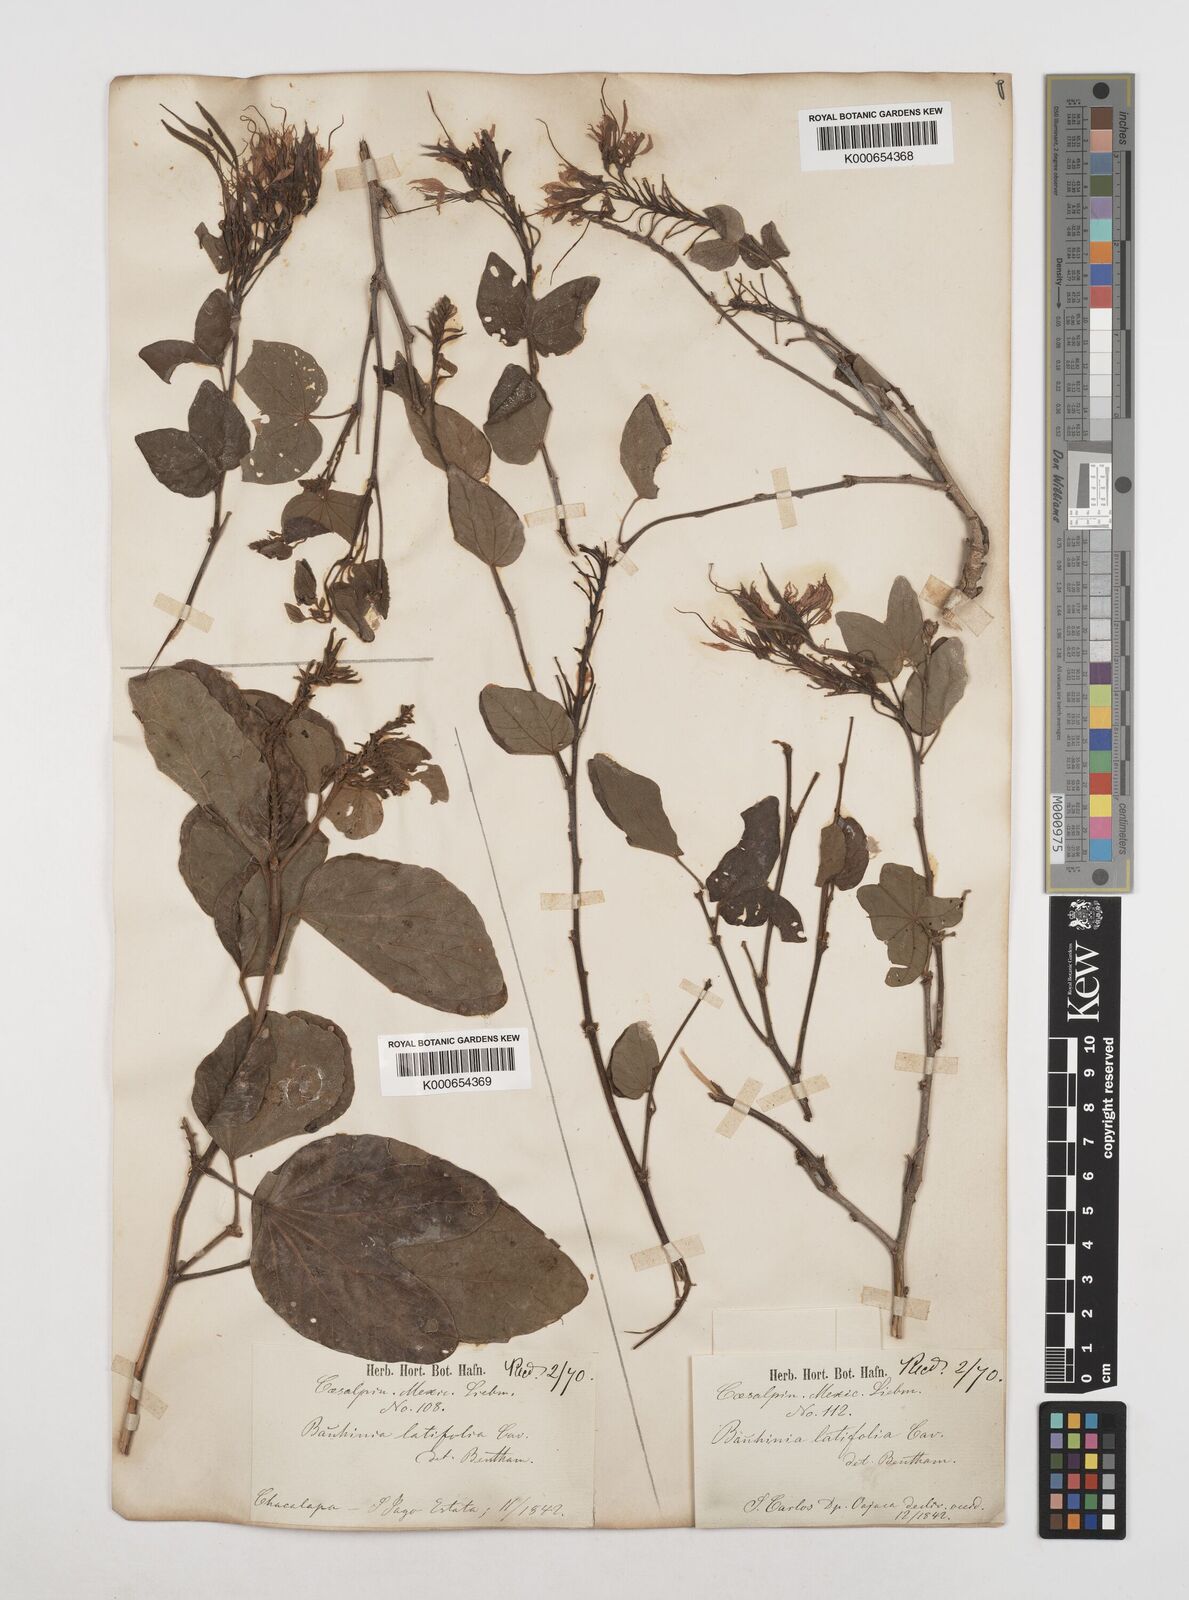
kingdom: Plantae
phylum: Tracheophyta
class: Magnoliopsida
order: Fabales
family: Fabaceae
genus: Bauhinia
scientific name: Bauhinia divaricata
